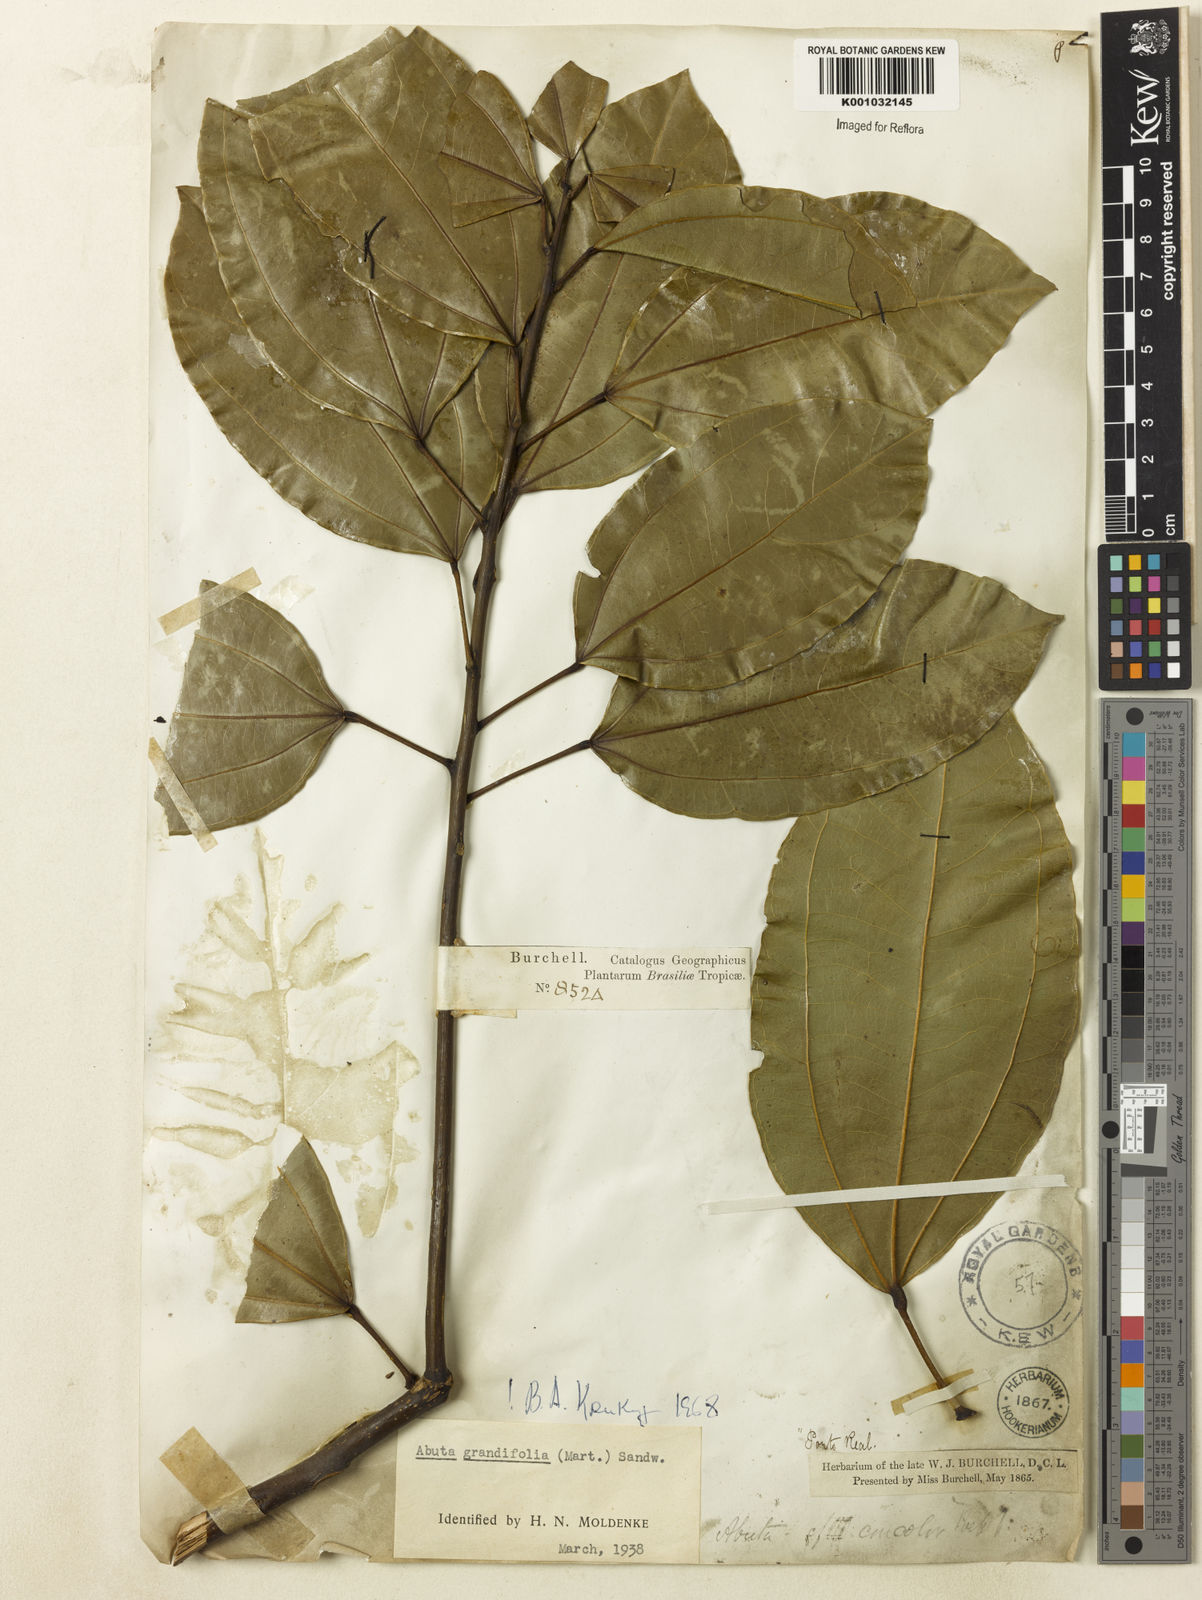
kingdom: Plantae
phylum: Tracheophyta
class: Magnoliopsida
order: Ranunculales
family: Menispermaceae
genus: Abuta
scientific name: Abuta grandifolia
